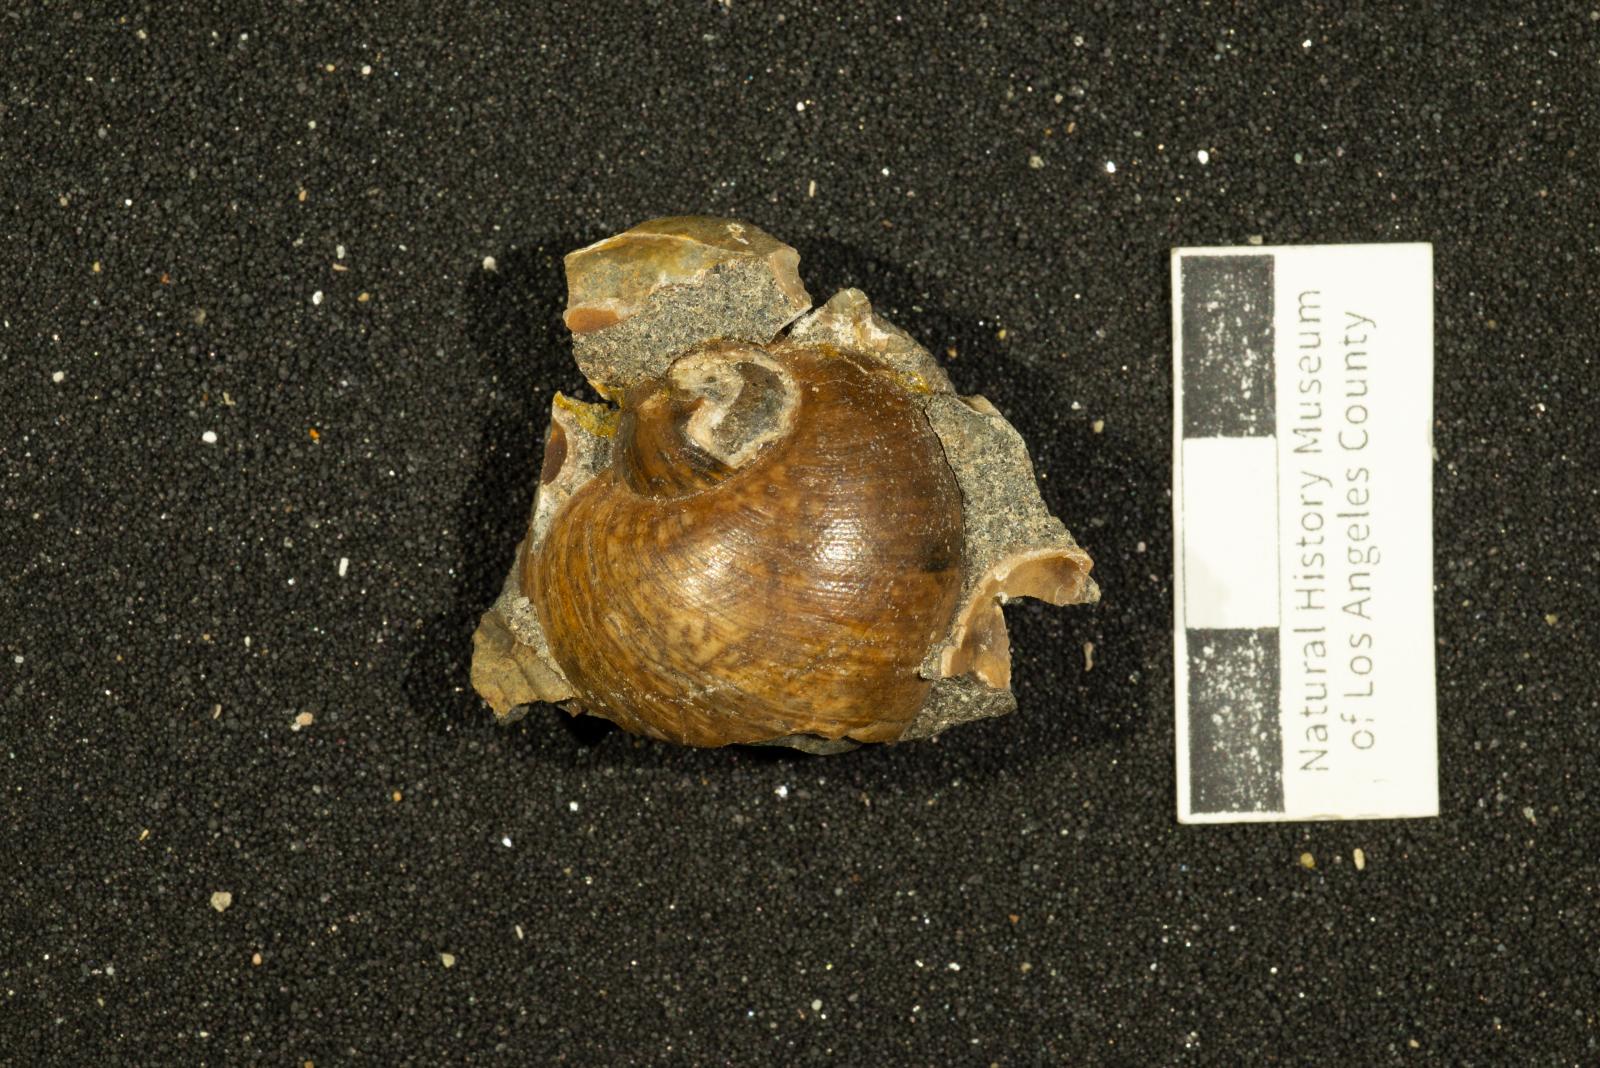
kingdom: Animalia
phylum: Mollusca
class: Gastropoda
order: Littorinimorpha
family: Naticidae
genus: Natica
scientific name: Natica conradiana
